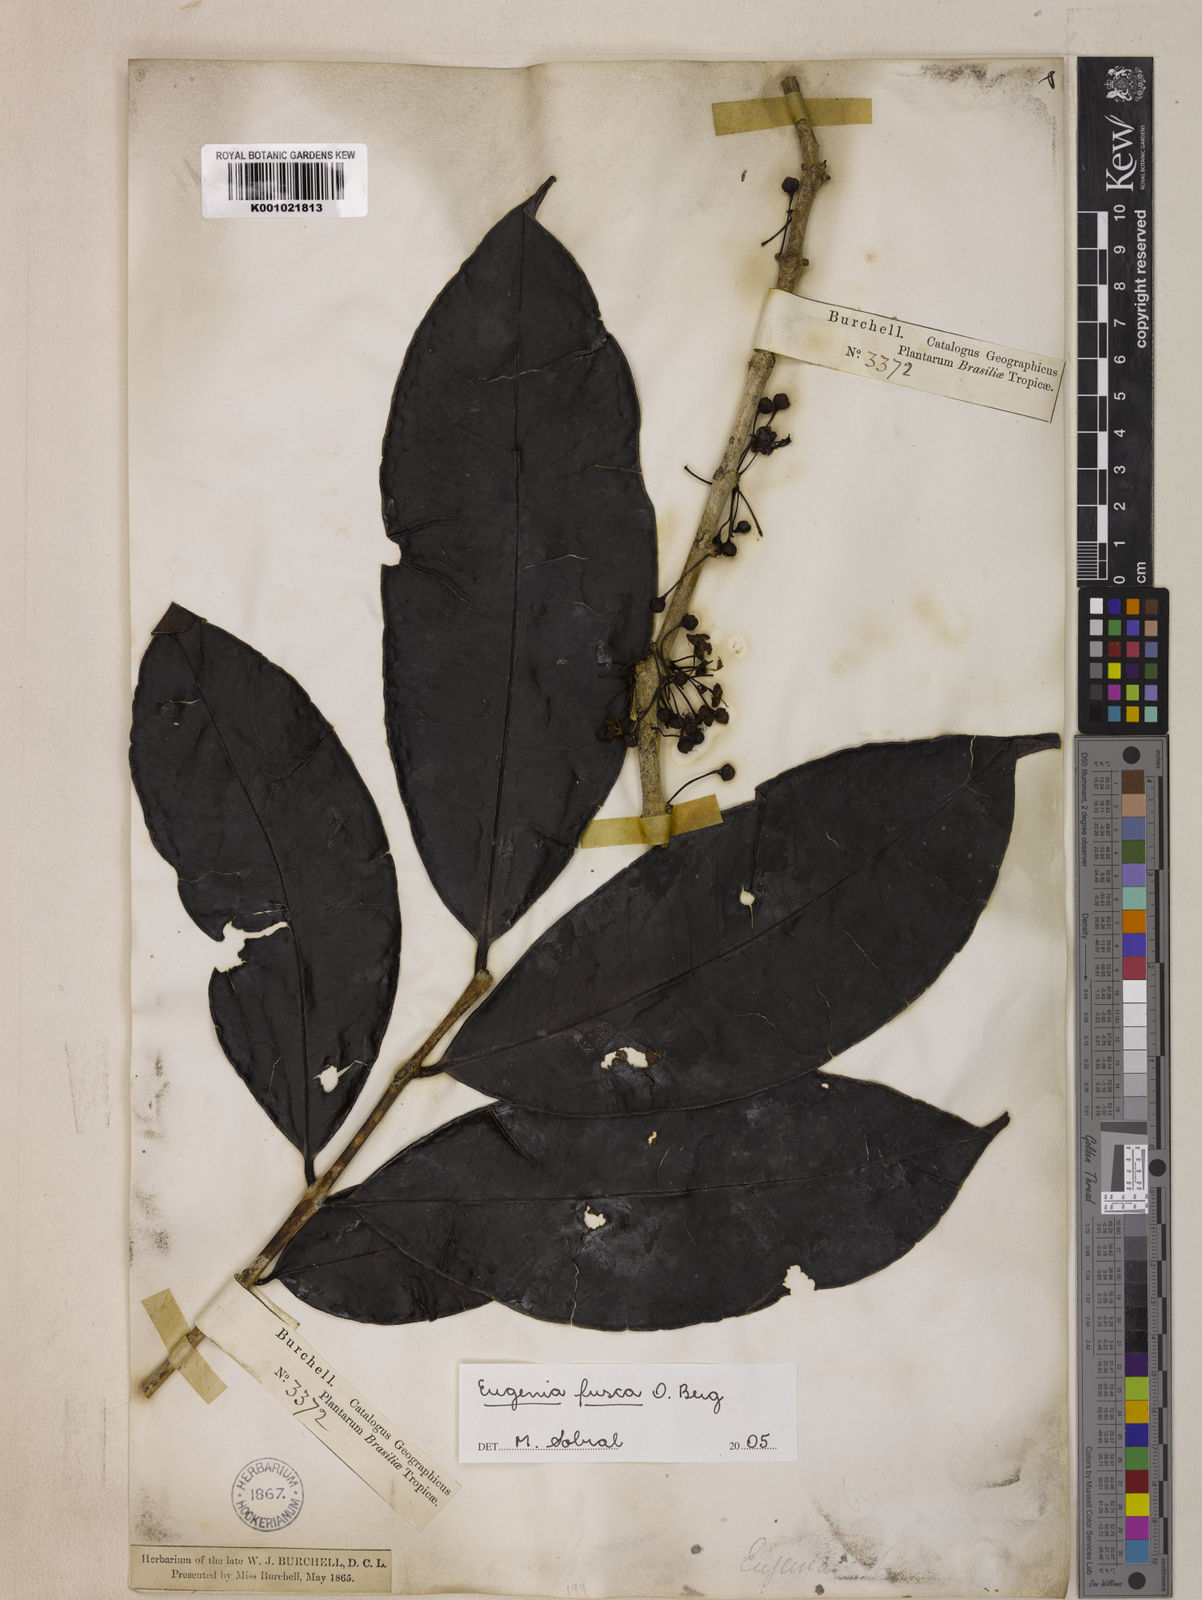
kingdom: Plantae
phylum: Tracheophyta
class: Magnoliopsida
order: Myrtales
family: Myrtaceae
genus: Eugenia
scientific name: Eugenia fusca
